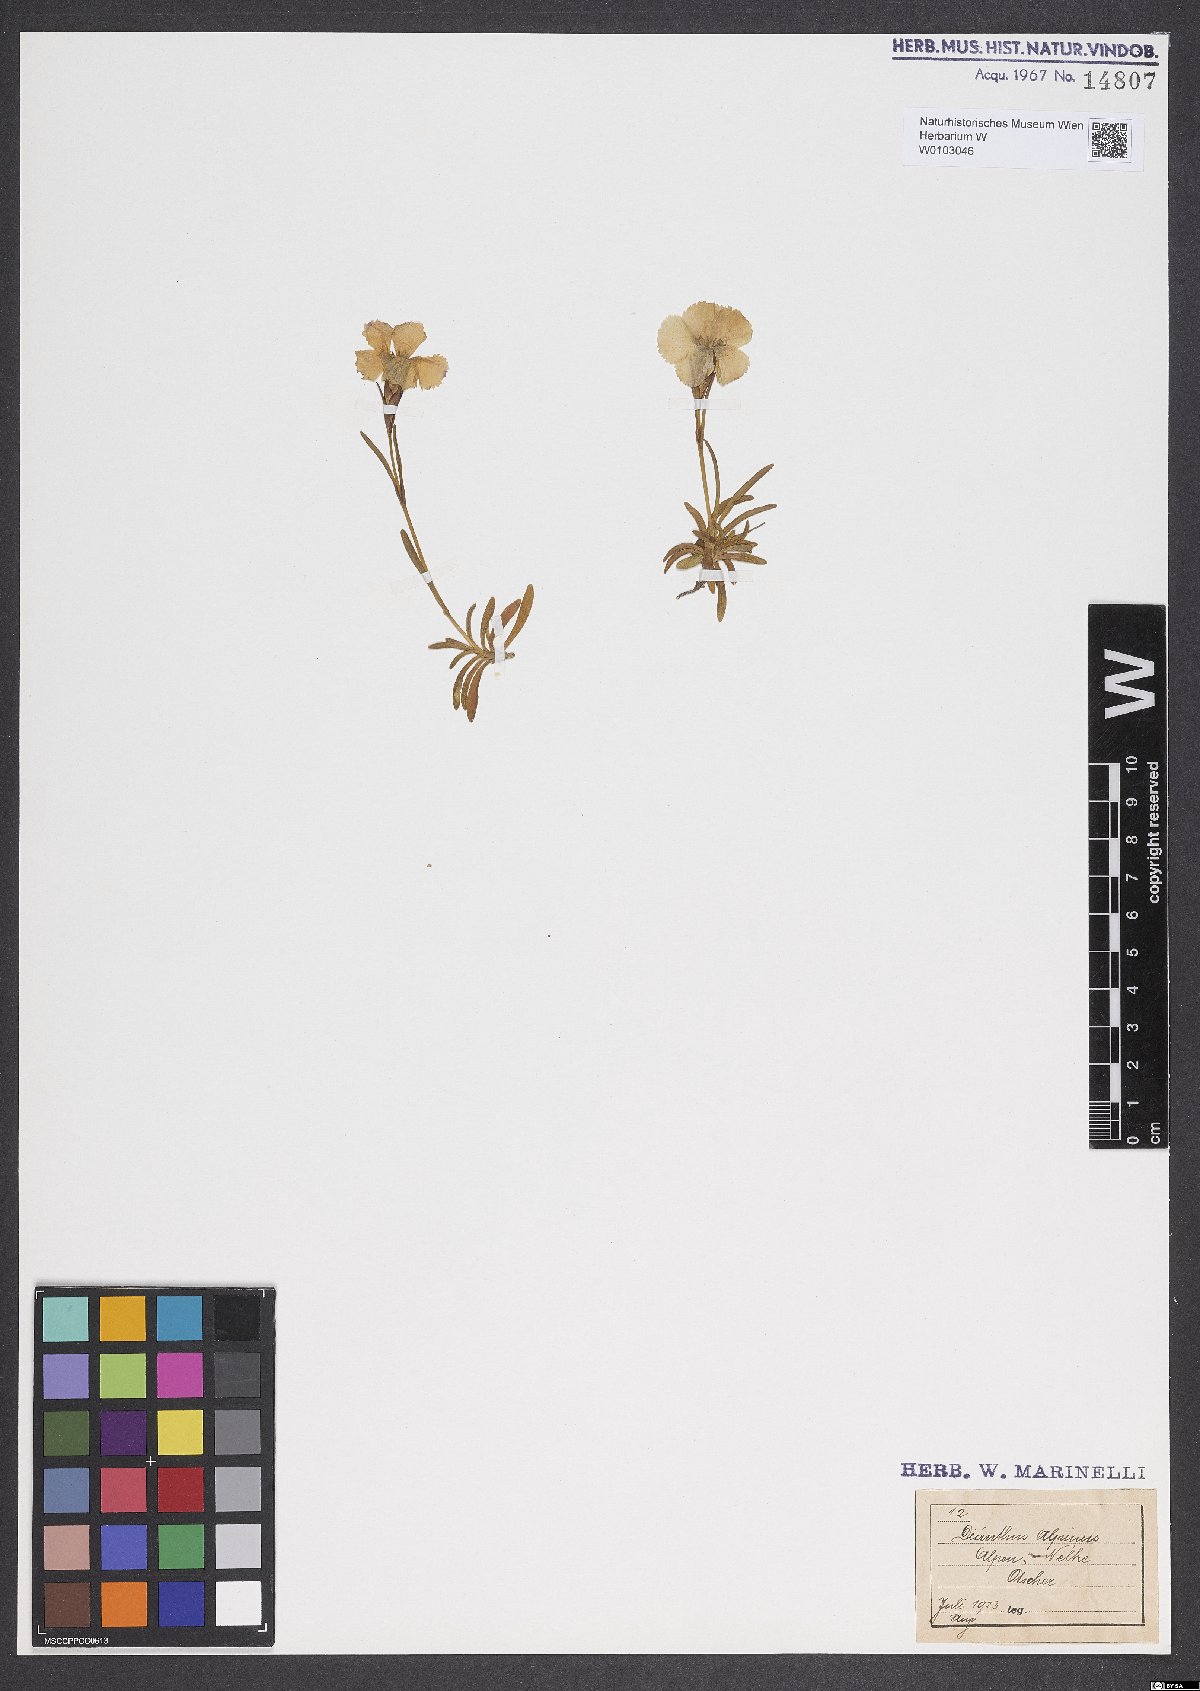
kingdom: Plantae
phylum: Tracheophyta
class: Magnoliopsida
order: Caryophyllales
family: Caryophyllaceae
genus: Dianthus
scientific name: Dianthus alpinus
